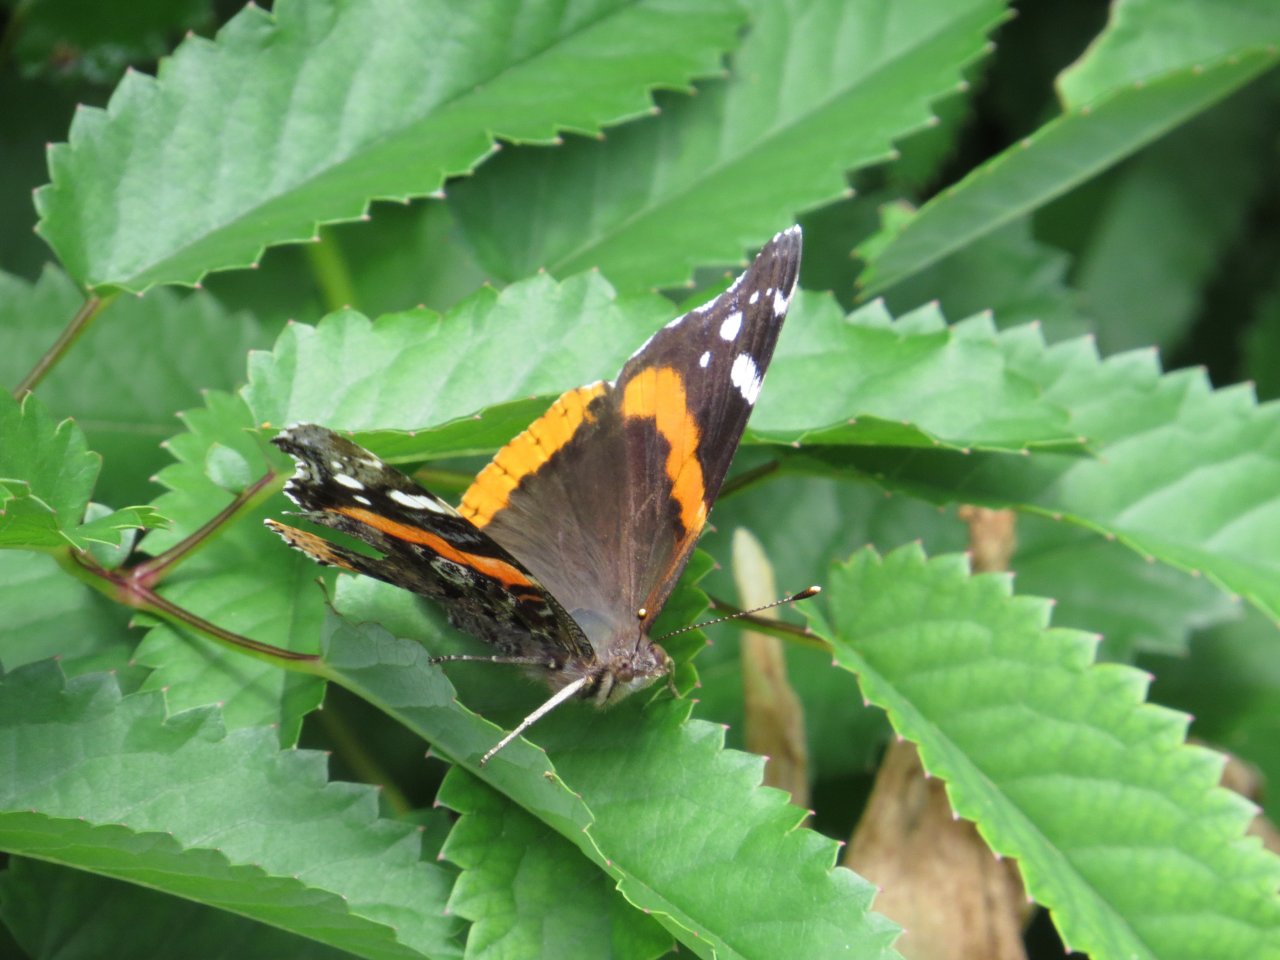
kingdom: Animalia
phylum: Arthropoda
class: Insecta
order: Lepidoptera
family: Nymphalidae
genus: Vanessa
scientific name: Vanessa atalanta
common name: Red Admiral
